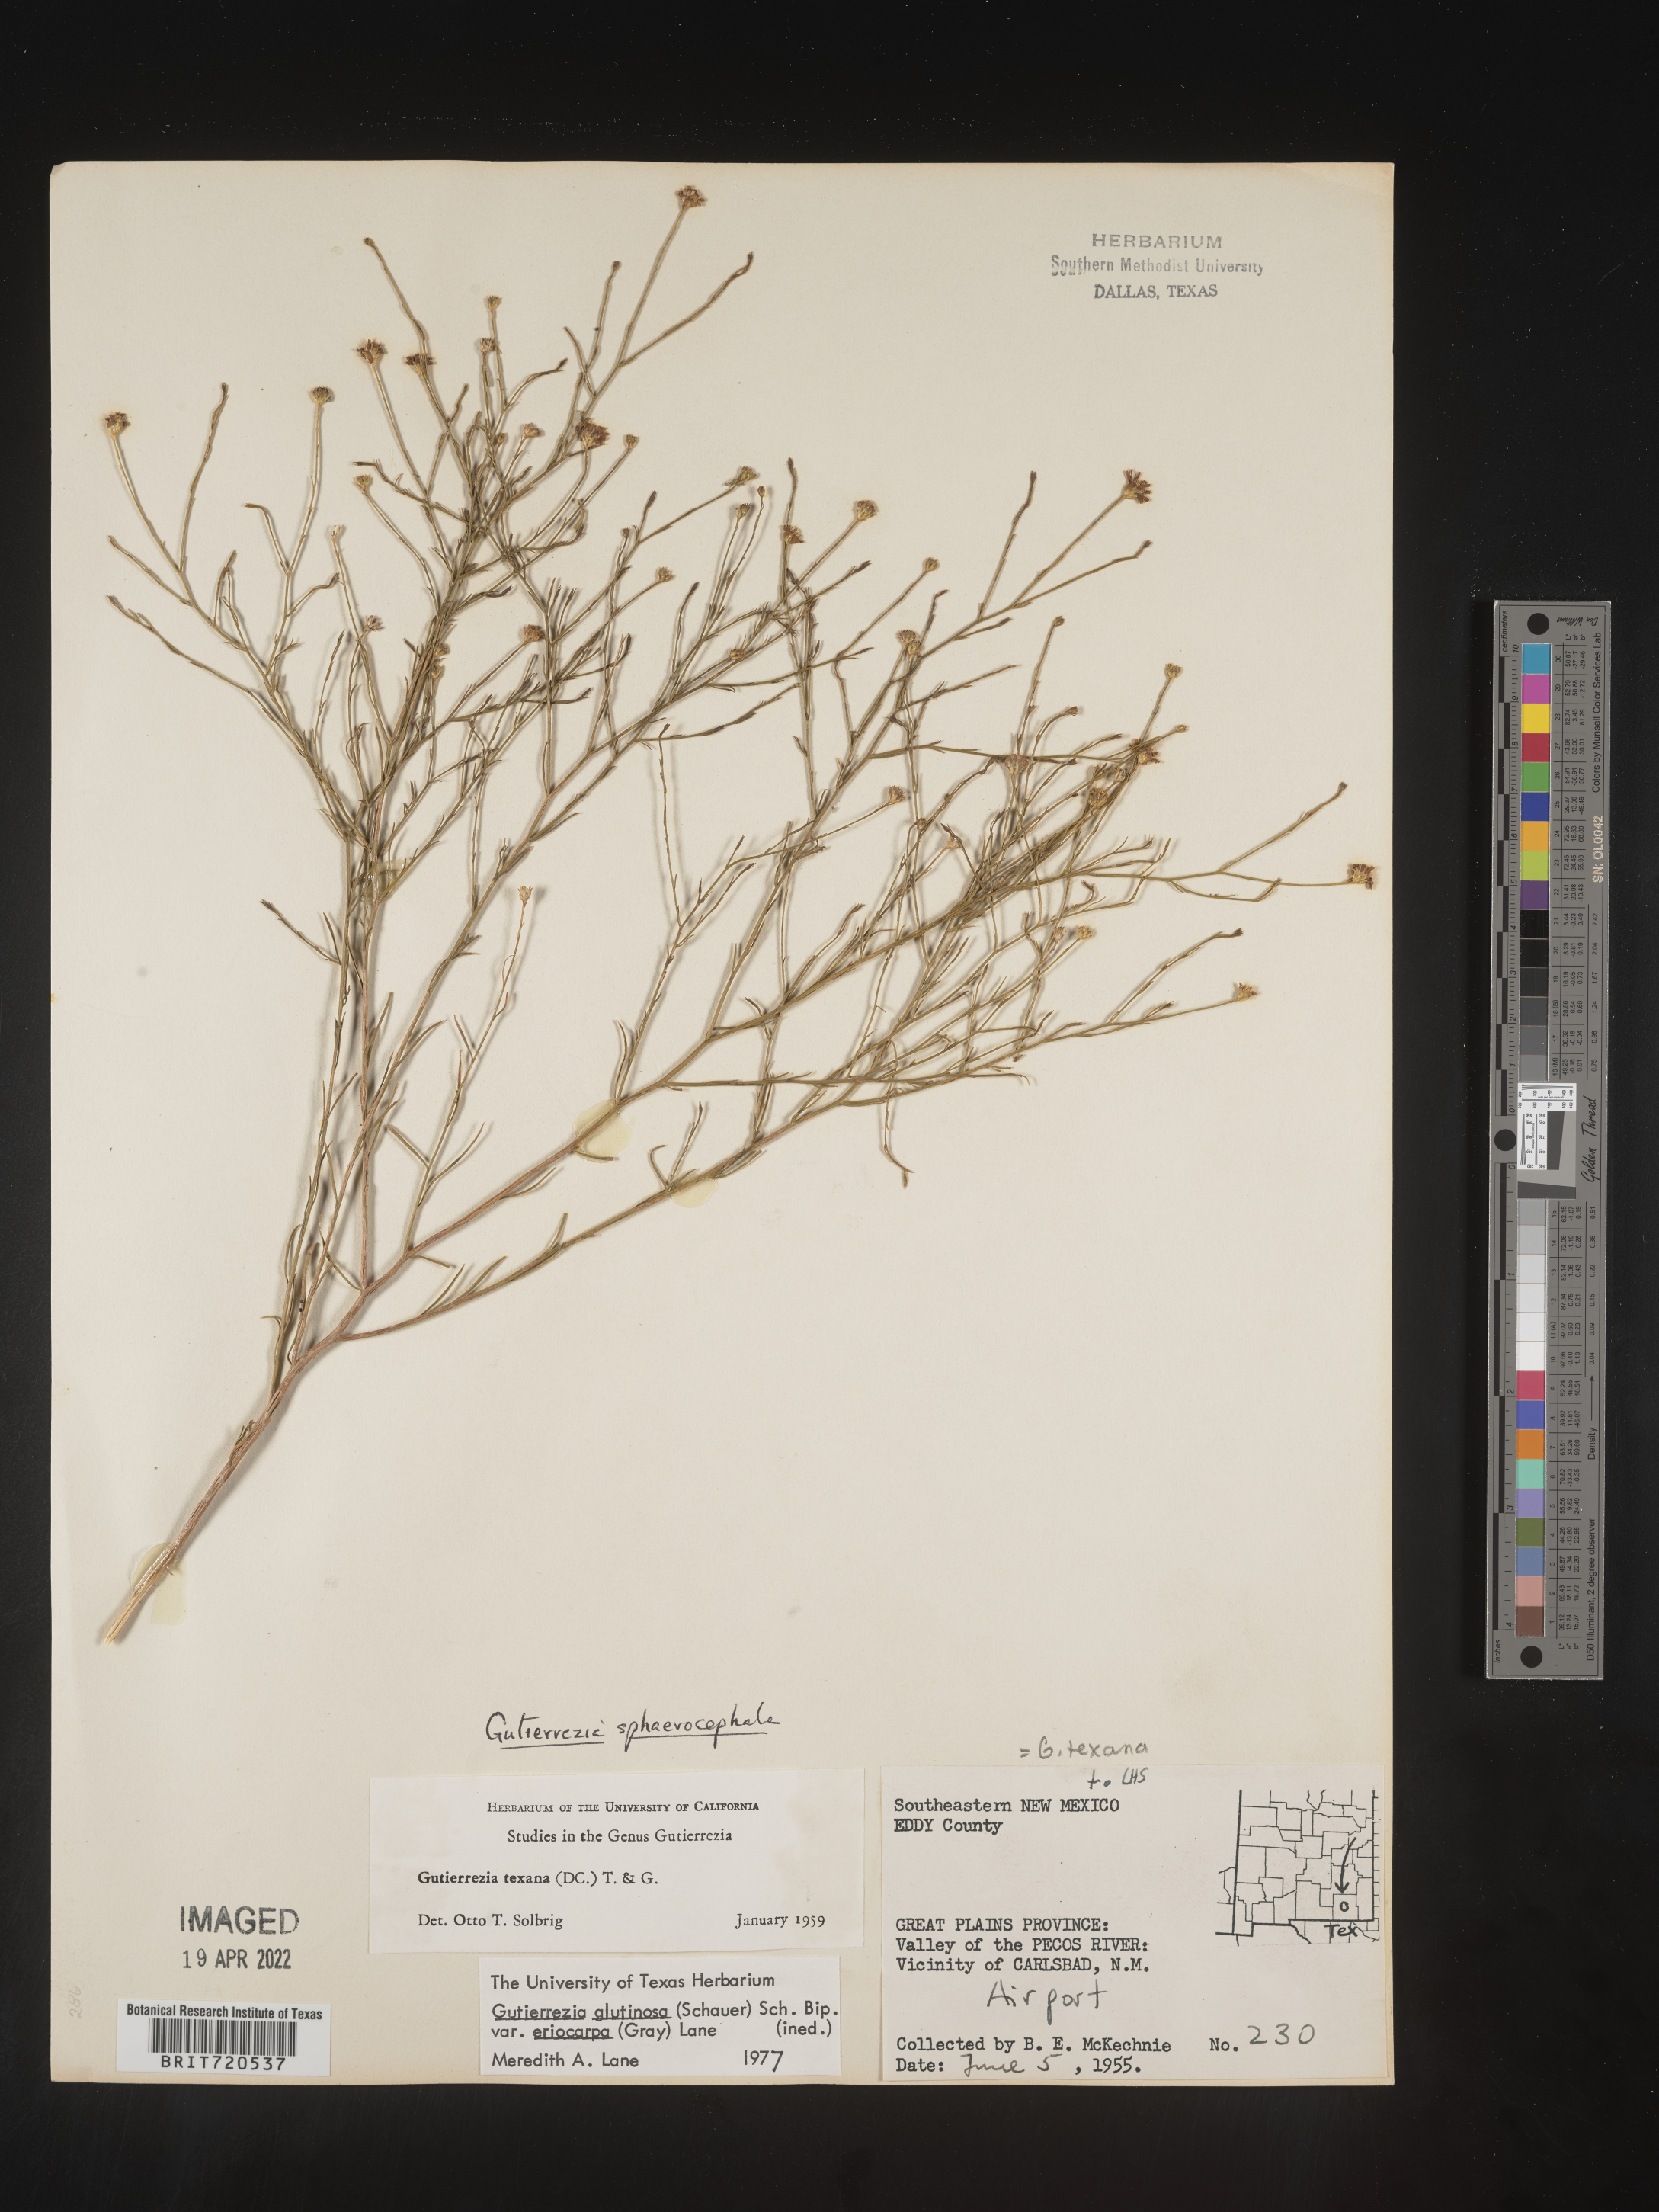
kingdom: Plantae
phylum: Tracheophyta
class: Magnoliopsida
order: Asterales
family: Asteraceae
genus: Gutierrezia
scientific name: Gutierrezia sphaerocephala
